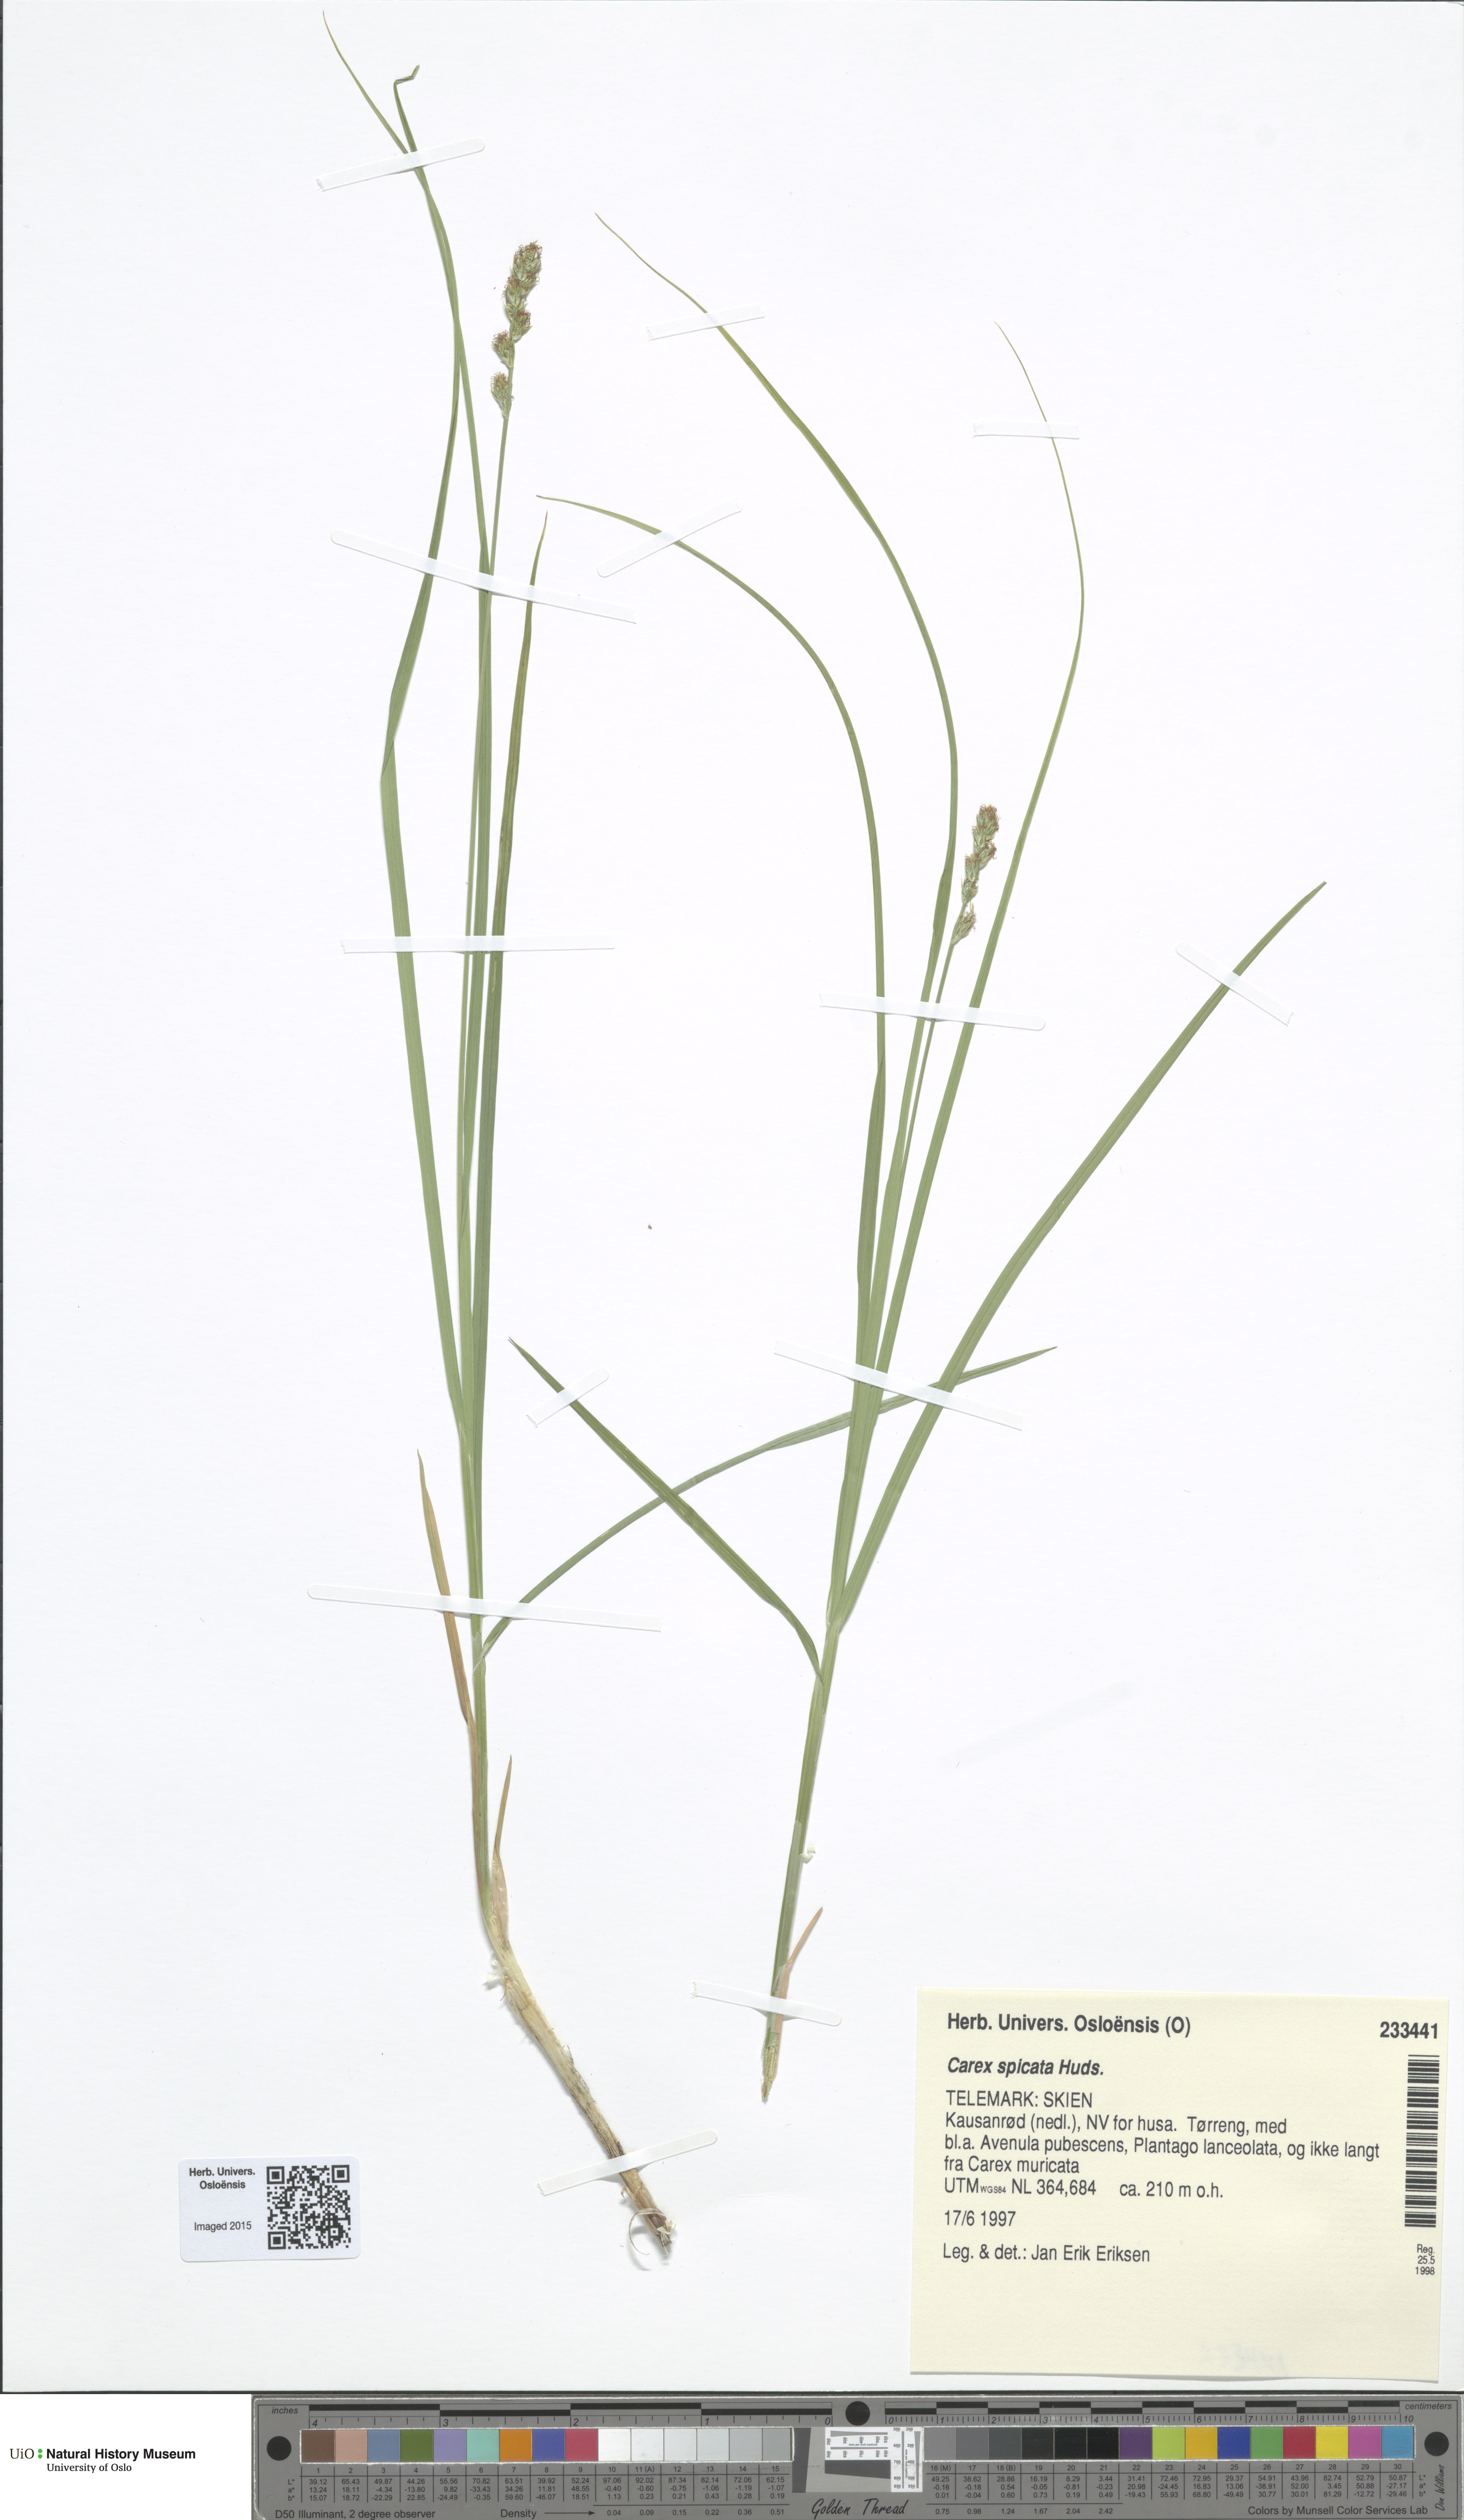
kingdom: Plantae
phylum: Tracheophyta
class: Liliopsida
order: Poales
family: Cyperaceae
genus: Carex
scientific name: Carex spicata
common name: Spiked sedge
